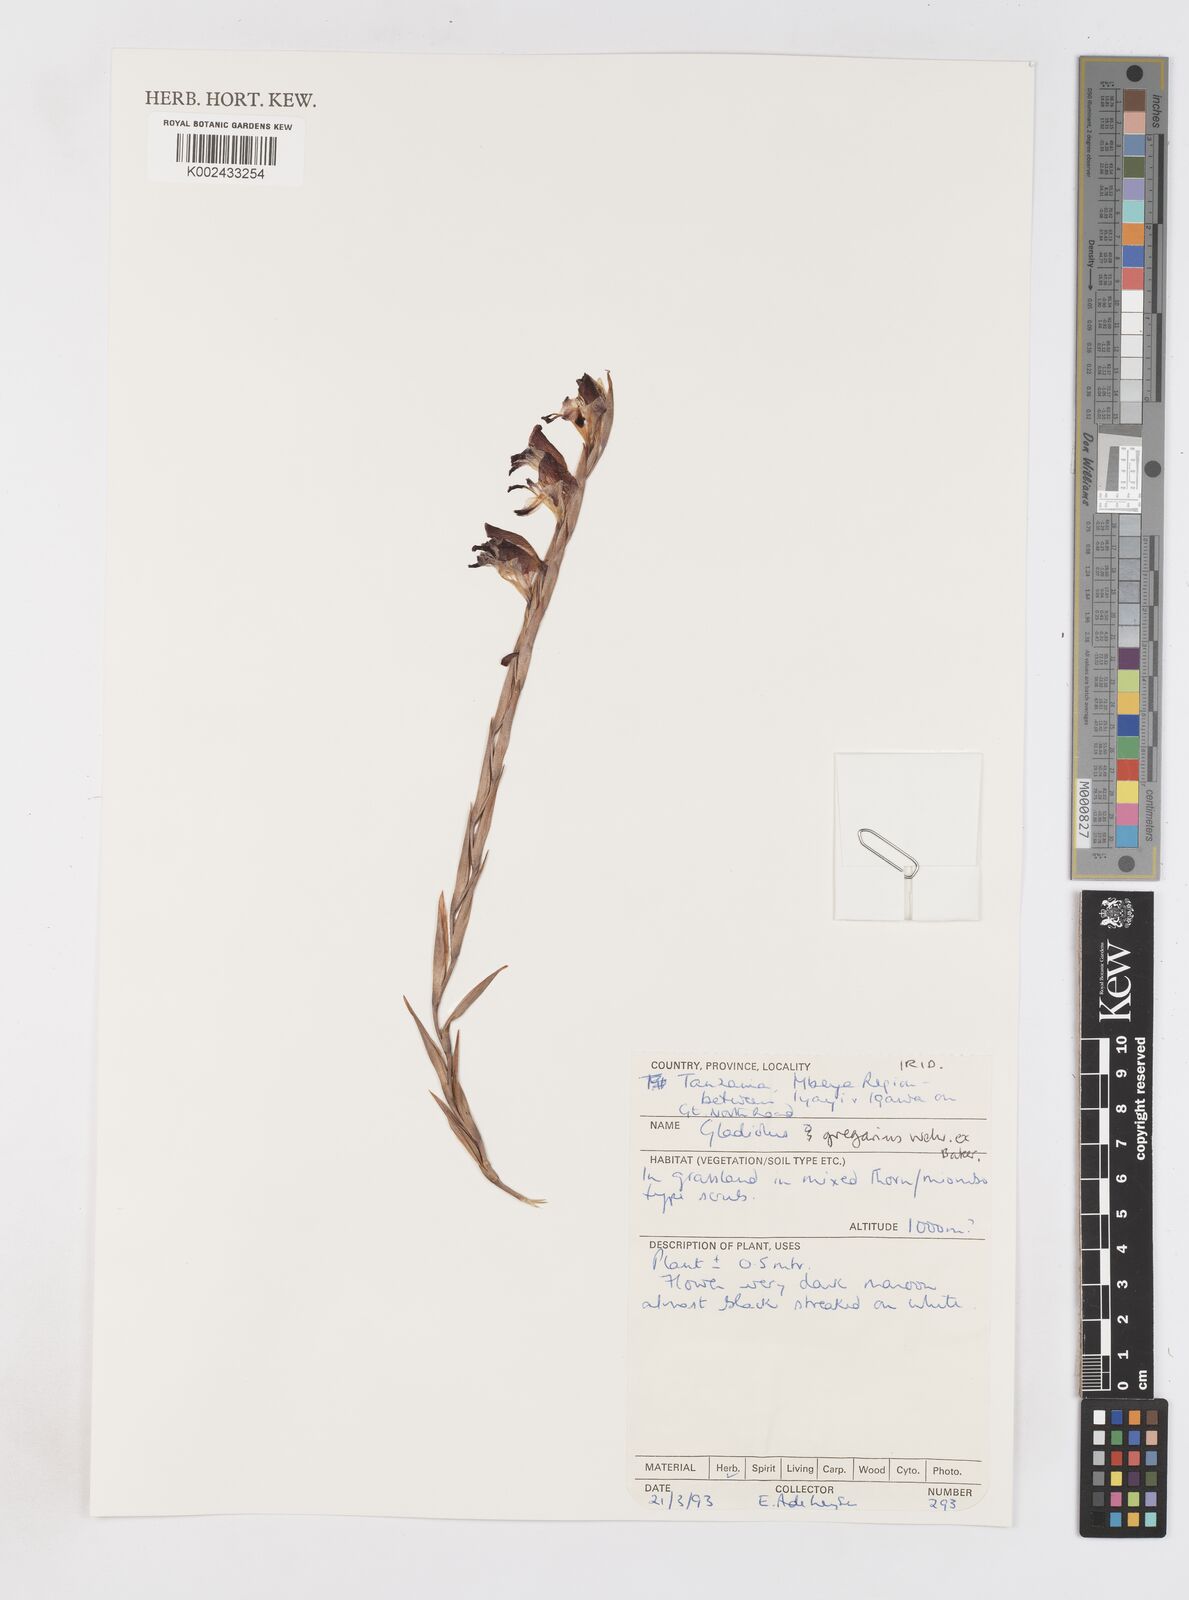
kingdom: Plantae
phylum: Tracheophyta
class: Liliopsida
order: Asparagales
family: Iridaceae
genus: Gladiolus
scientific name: Gladiolus gregarius
